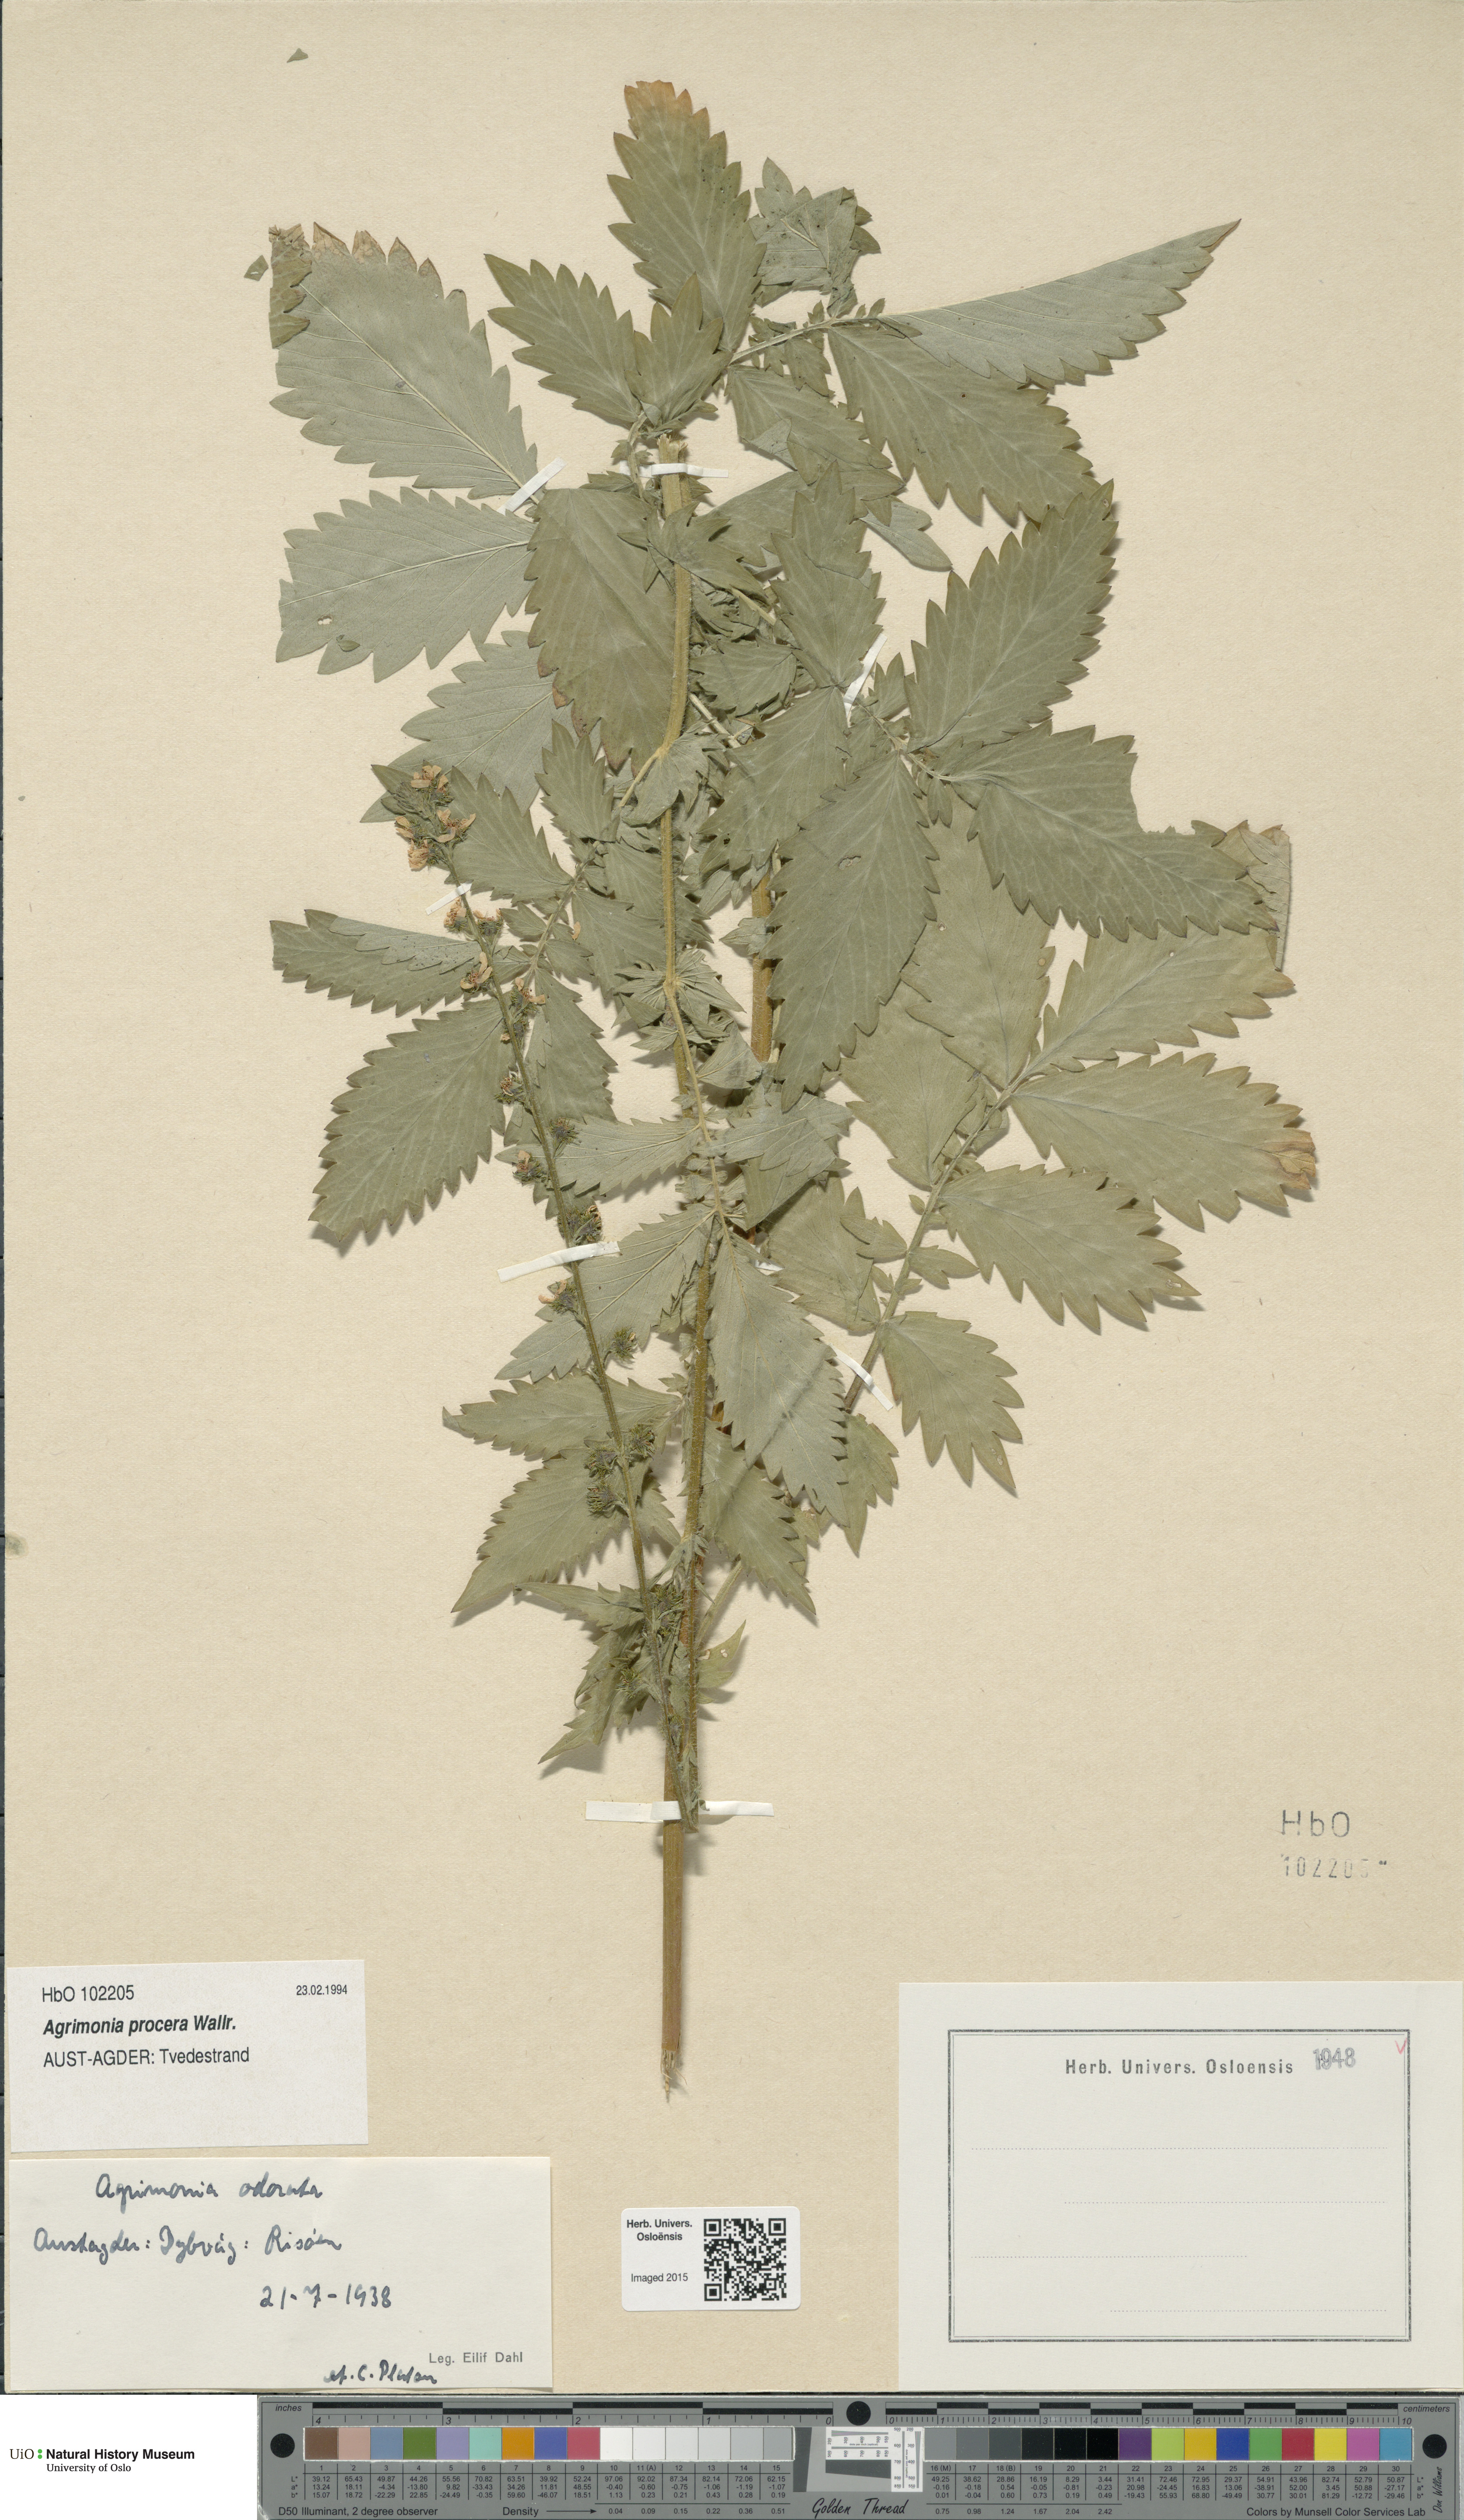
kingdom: Plantae
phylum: Tracheophyta
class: Magnoliopsida
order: Rosales
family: Rosaceae
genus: Agrimonia
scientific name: Agrimonia procera
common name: Fragrant agrimony
